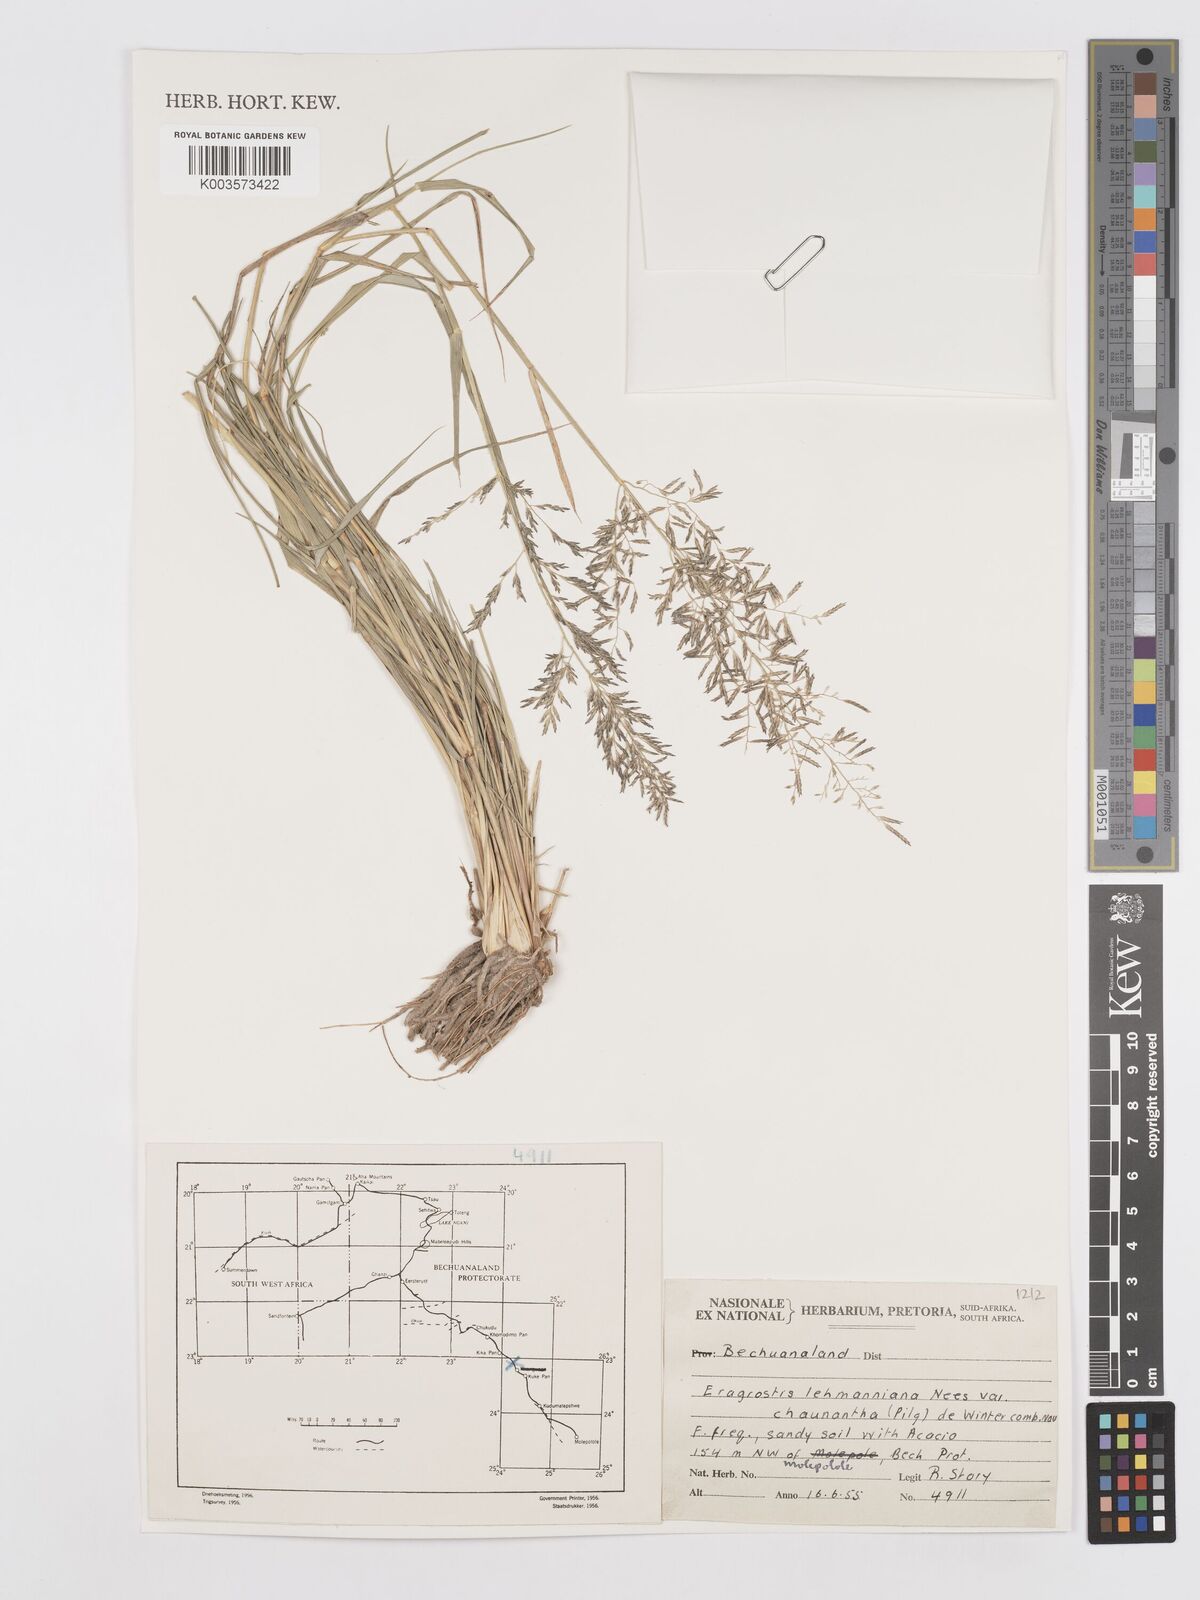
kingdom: Plantae
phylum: Tracheophyta
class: Liliopsida
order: Poales
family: Poaceae
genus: Eragrostis
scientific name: Eragrostis lehmanniana
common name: Lehmann lovegrass
